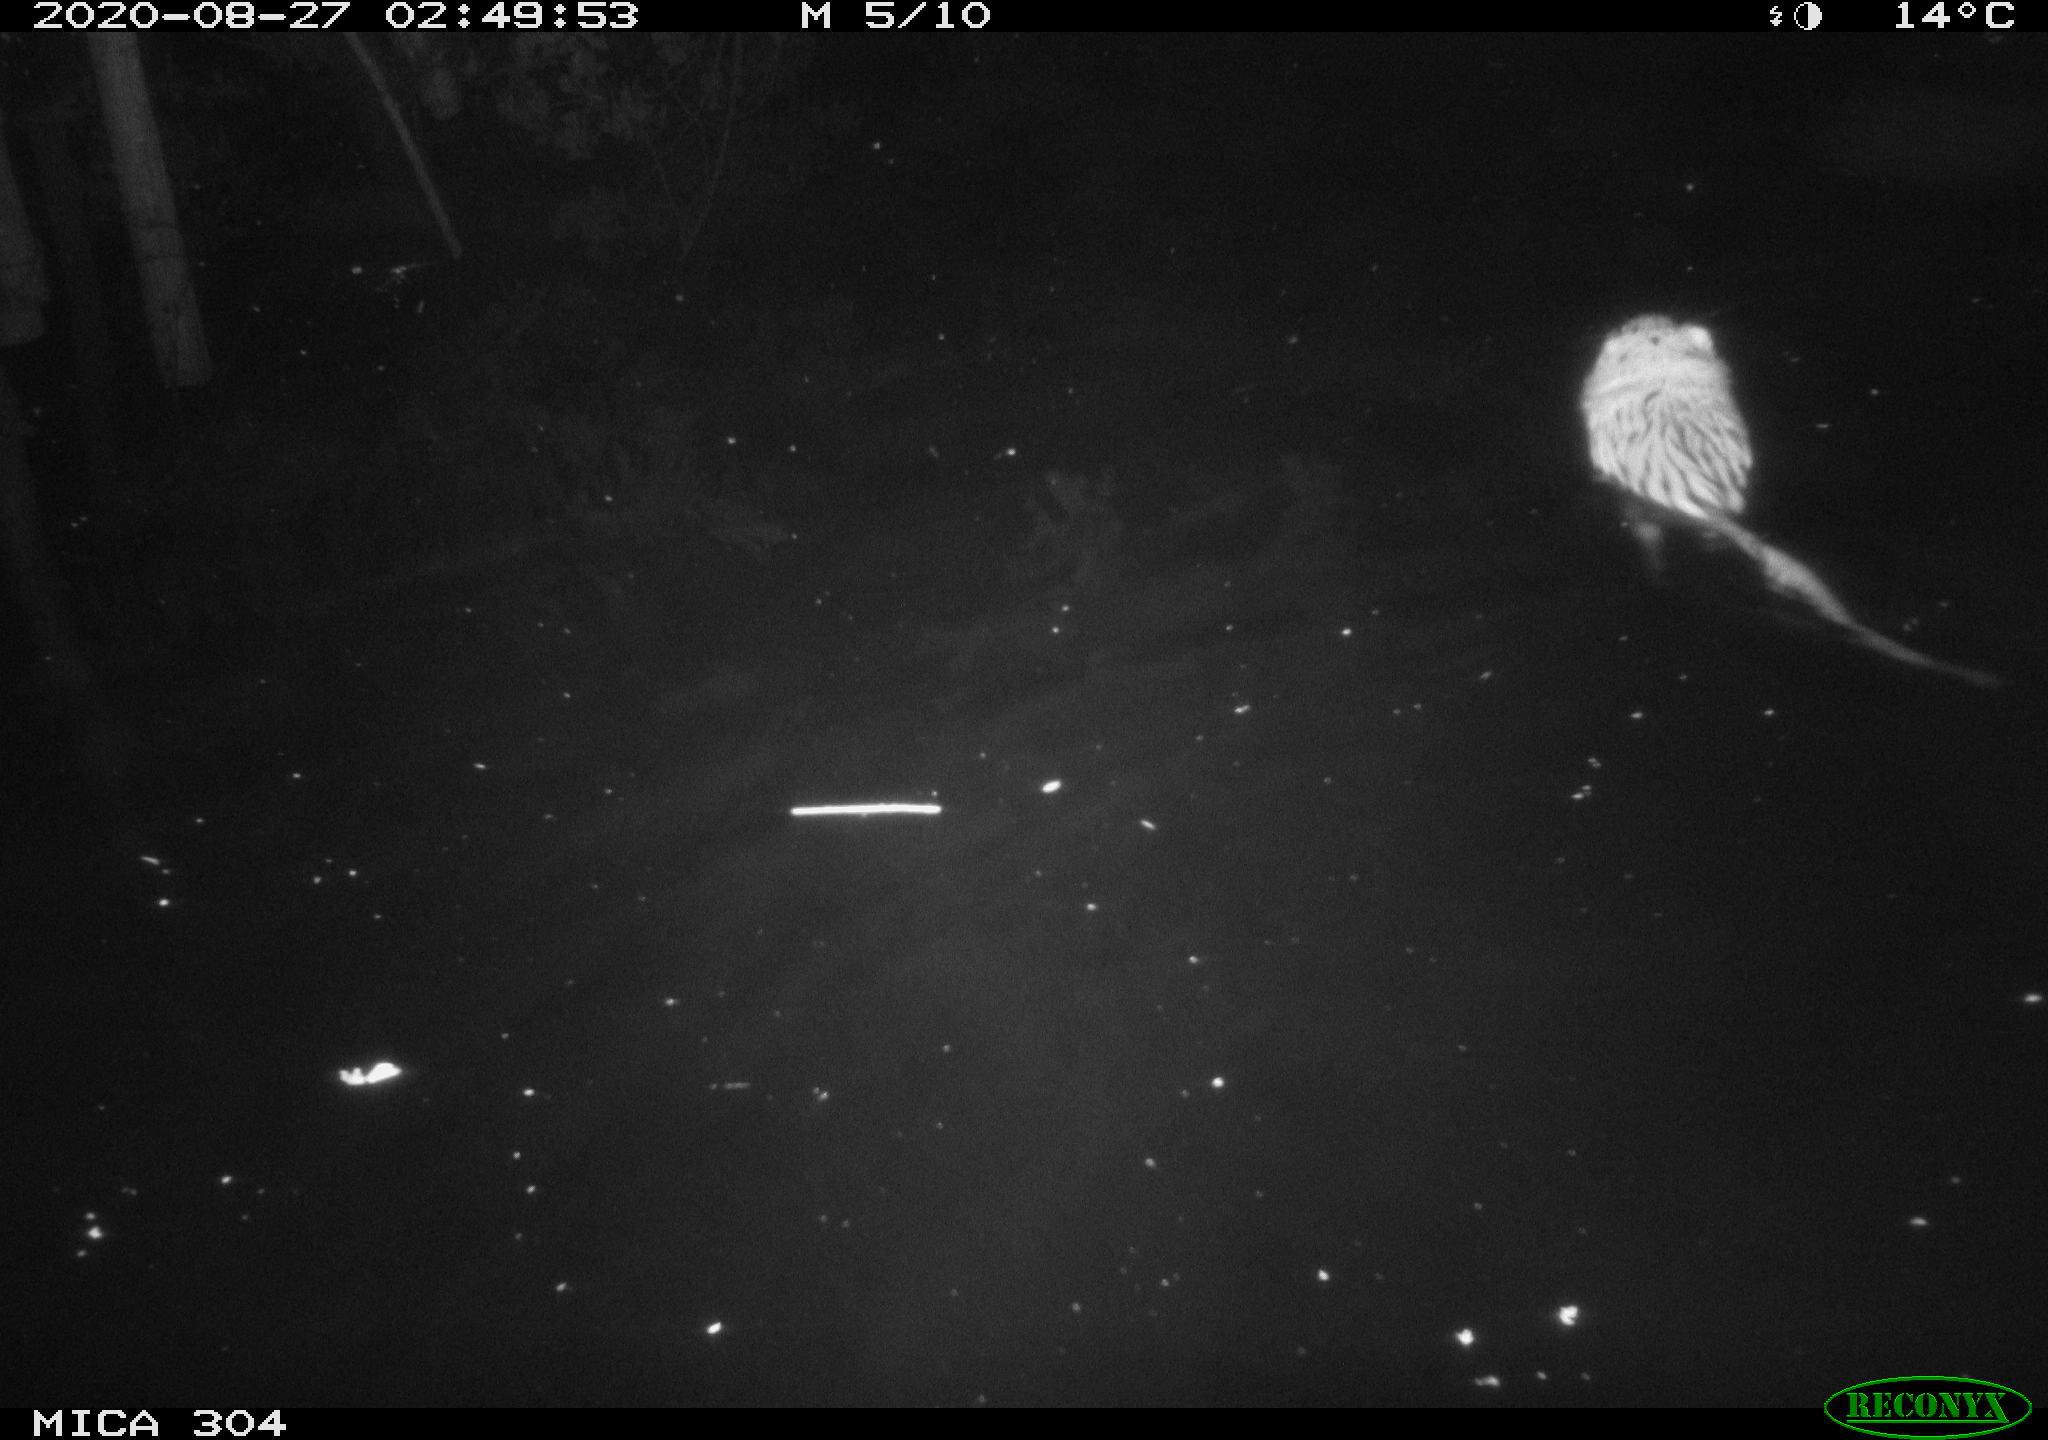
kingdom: Animalia
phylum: Chordata
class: Mammalia
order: Rodentia
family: Cricetidae
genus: Ondatra
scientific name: Ondatra zibethicus
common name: Muskrat
